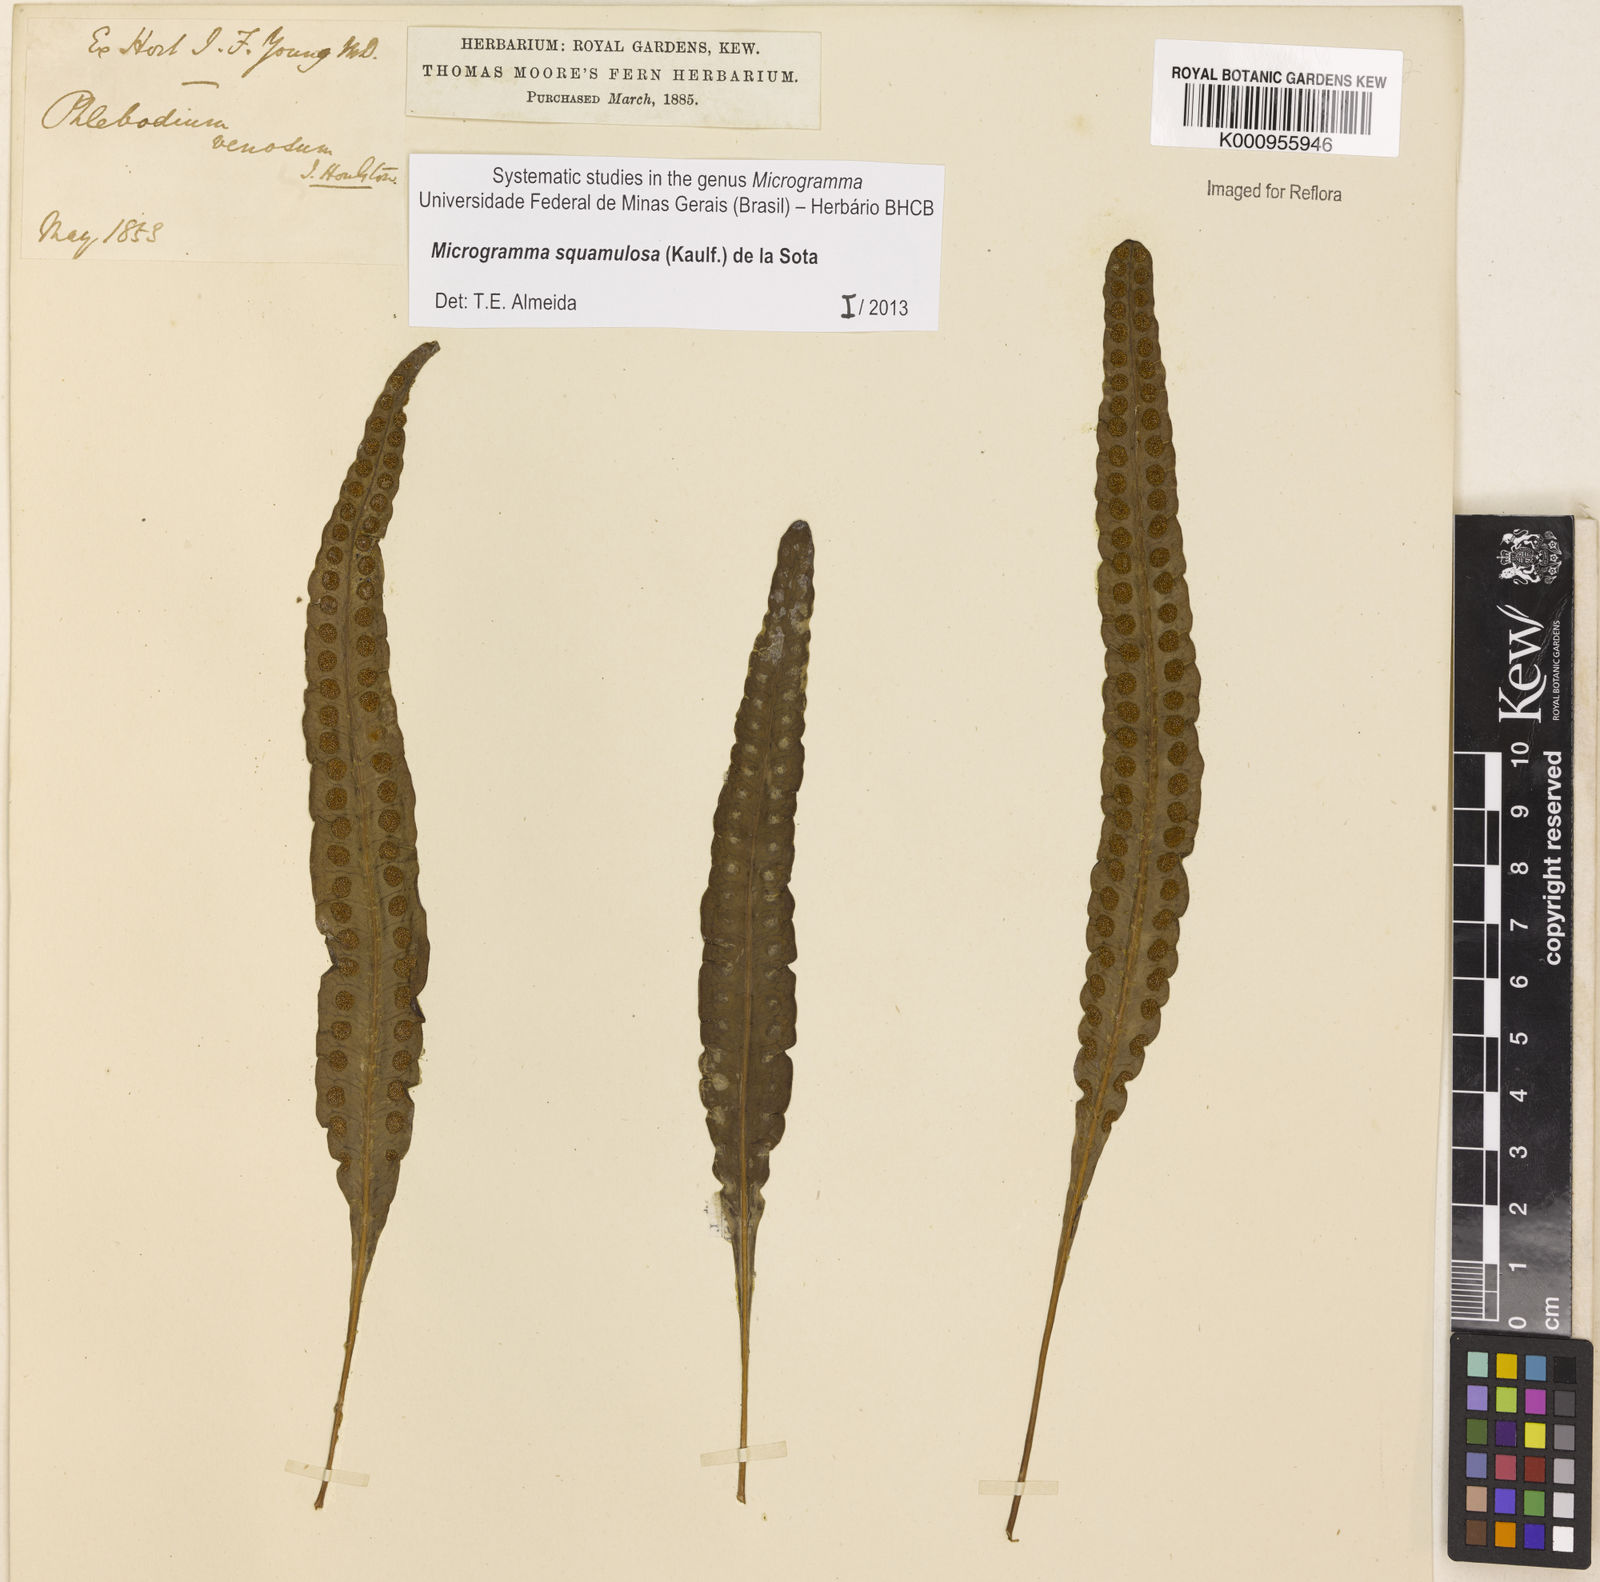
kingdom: Plantae
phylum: Tracheophyta
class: Polypodiopsida
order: Polypodiales
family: Polypodiaceae
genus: Microgramma
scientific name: Microgramma squamulosa
